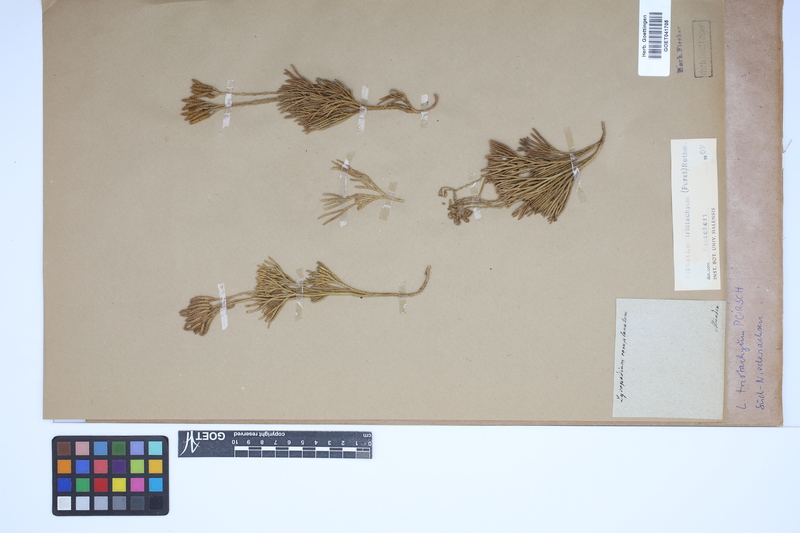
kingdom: Plantae
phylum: Tracheophyta
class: Lycopodiopsida
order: Lycopodiales
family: Lycopodiaceae
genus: Diphasiastrum
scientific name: Diphasiastrum tristachyum
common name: Blue ground-cedar
